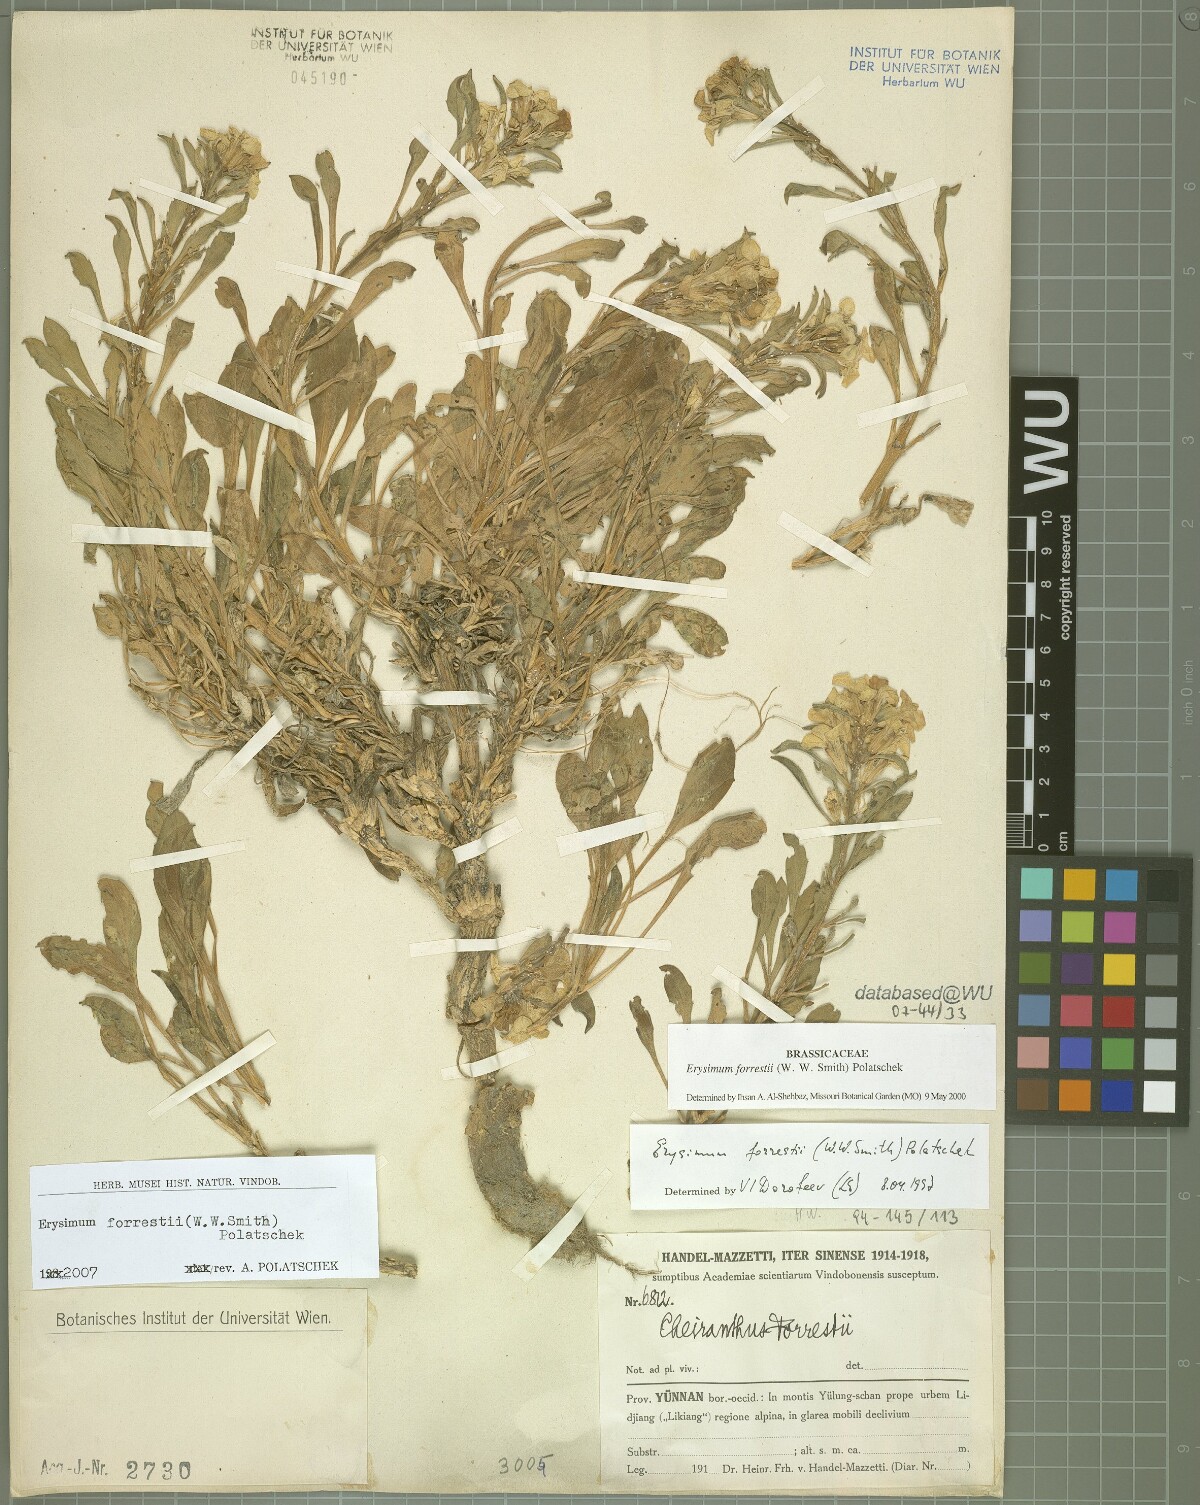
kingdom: Plantae
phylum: Tracheophyta
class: Magnoliopsida
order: Brassicales
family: Brassicaceae
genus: Erysimum
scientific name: Erysimum forrestii
